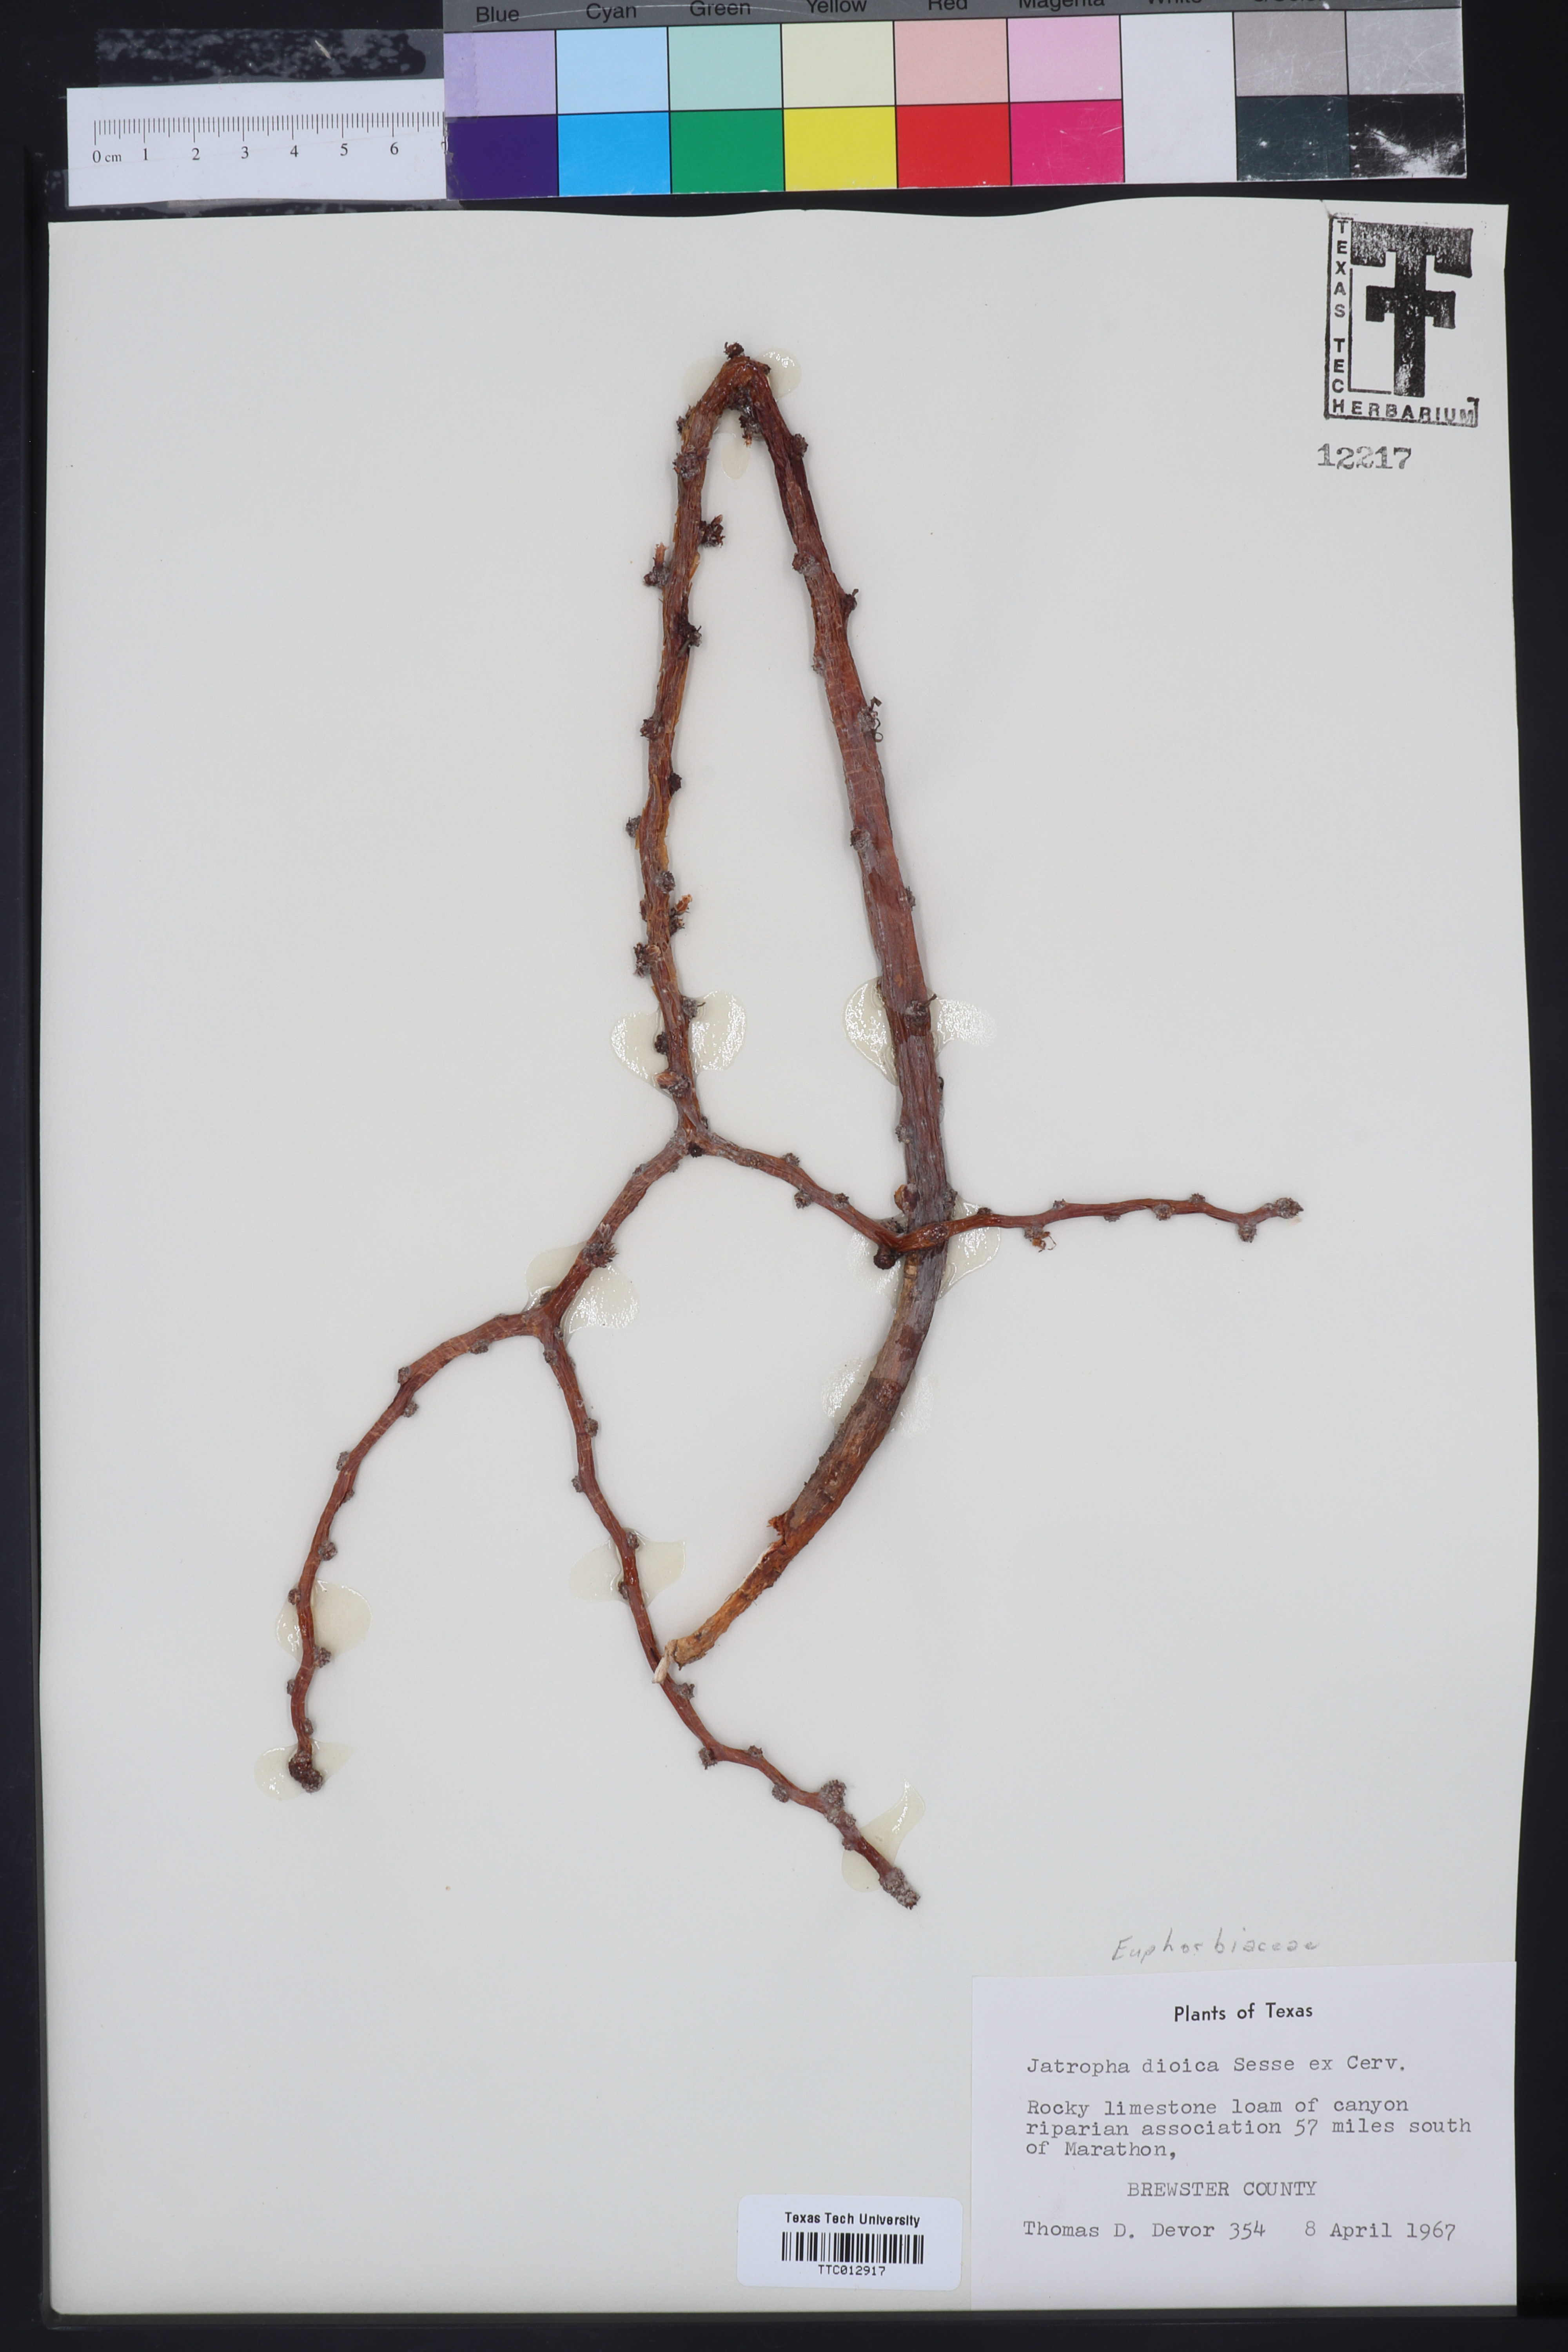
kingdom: Plantae
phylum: Tracheophyta
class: Magnoliopsida
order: Malpighiales
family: Euphorbiaceae
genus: Jatropha
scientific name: Jatropha dioica
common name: Leatherstem
